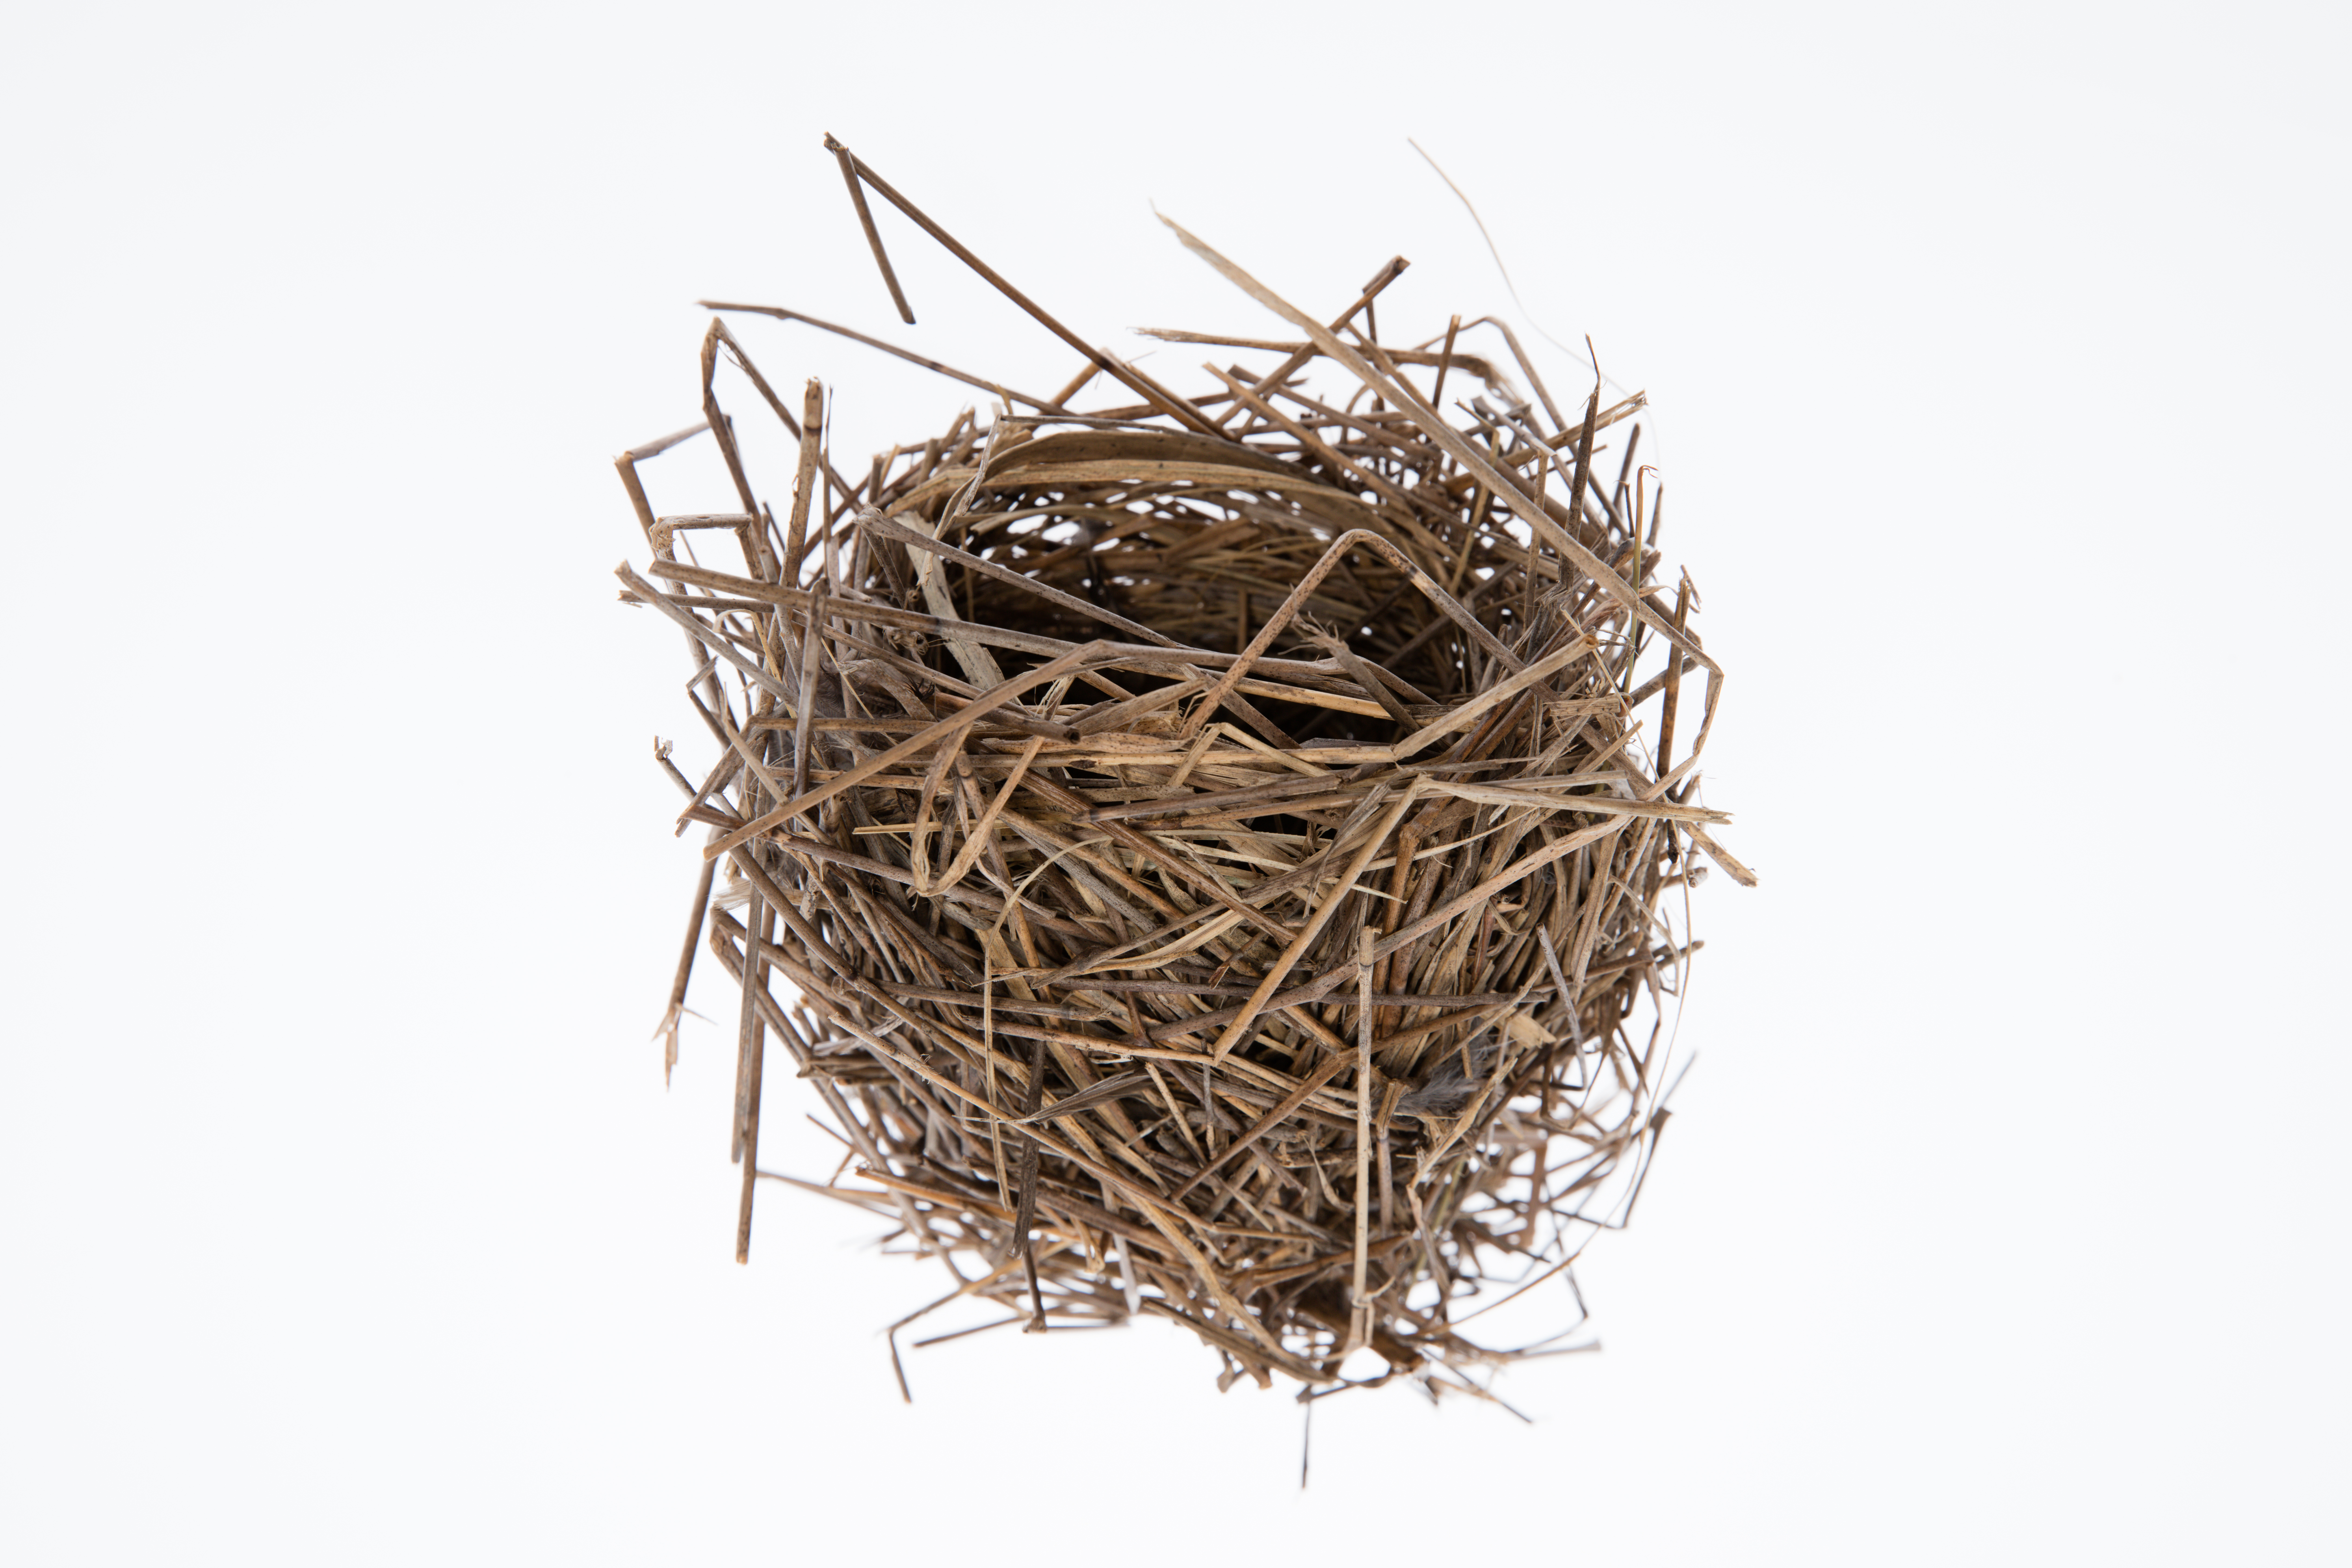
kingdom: Animalia
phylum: Chordata
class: Aves
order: Passeriformes
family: Locustellidae
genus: Megalurus
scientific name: Megalurus punctatus
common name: New zealand fernbird
